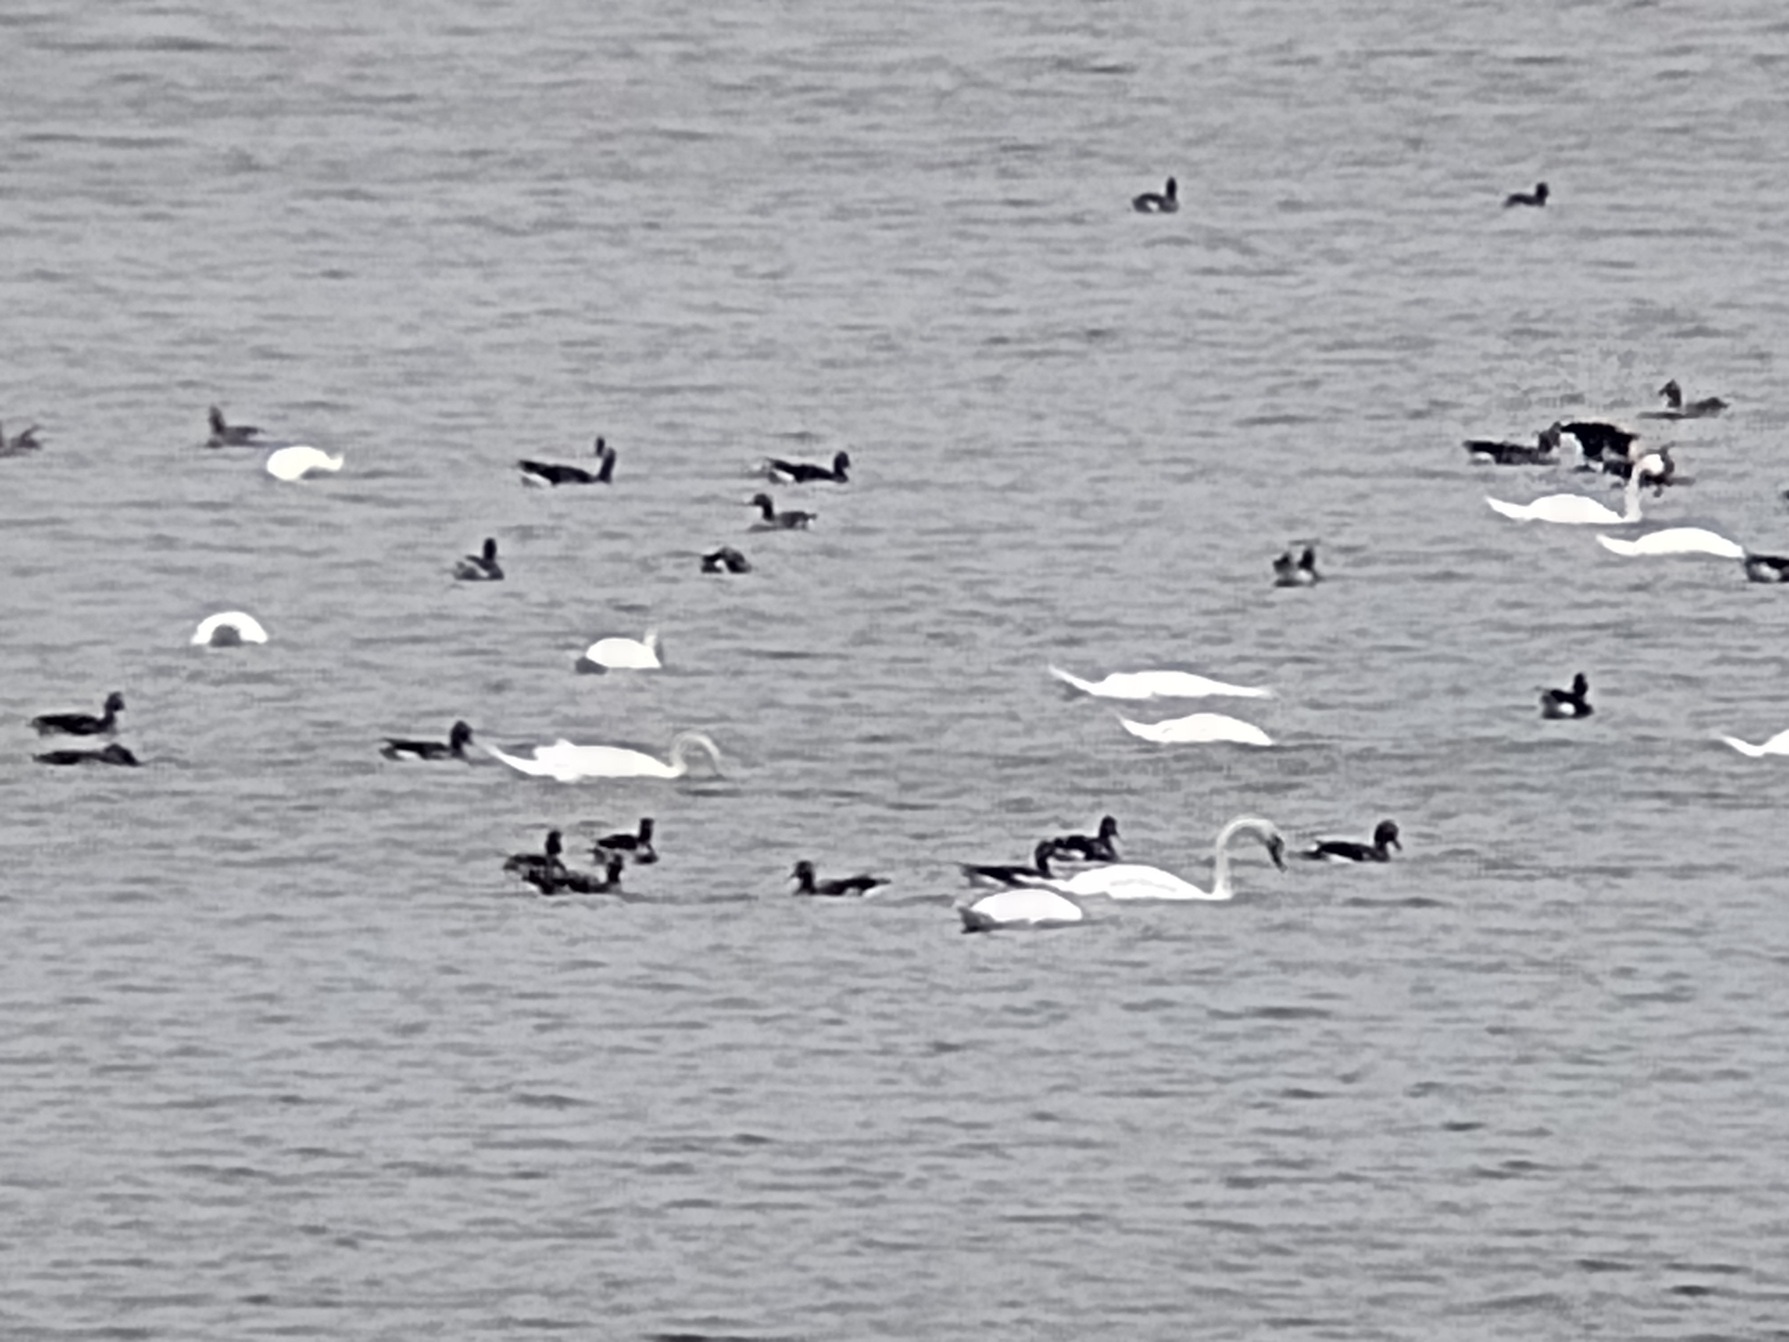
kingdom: Animalia
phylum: Chordata
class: Aves
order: Anseriformes
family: Anatidae
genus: Cygnus
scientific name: Cygnus olor
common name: Knopsvane
